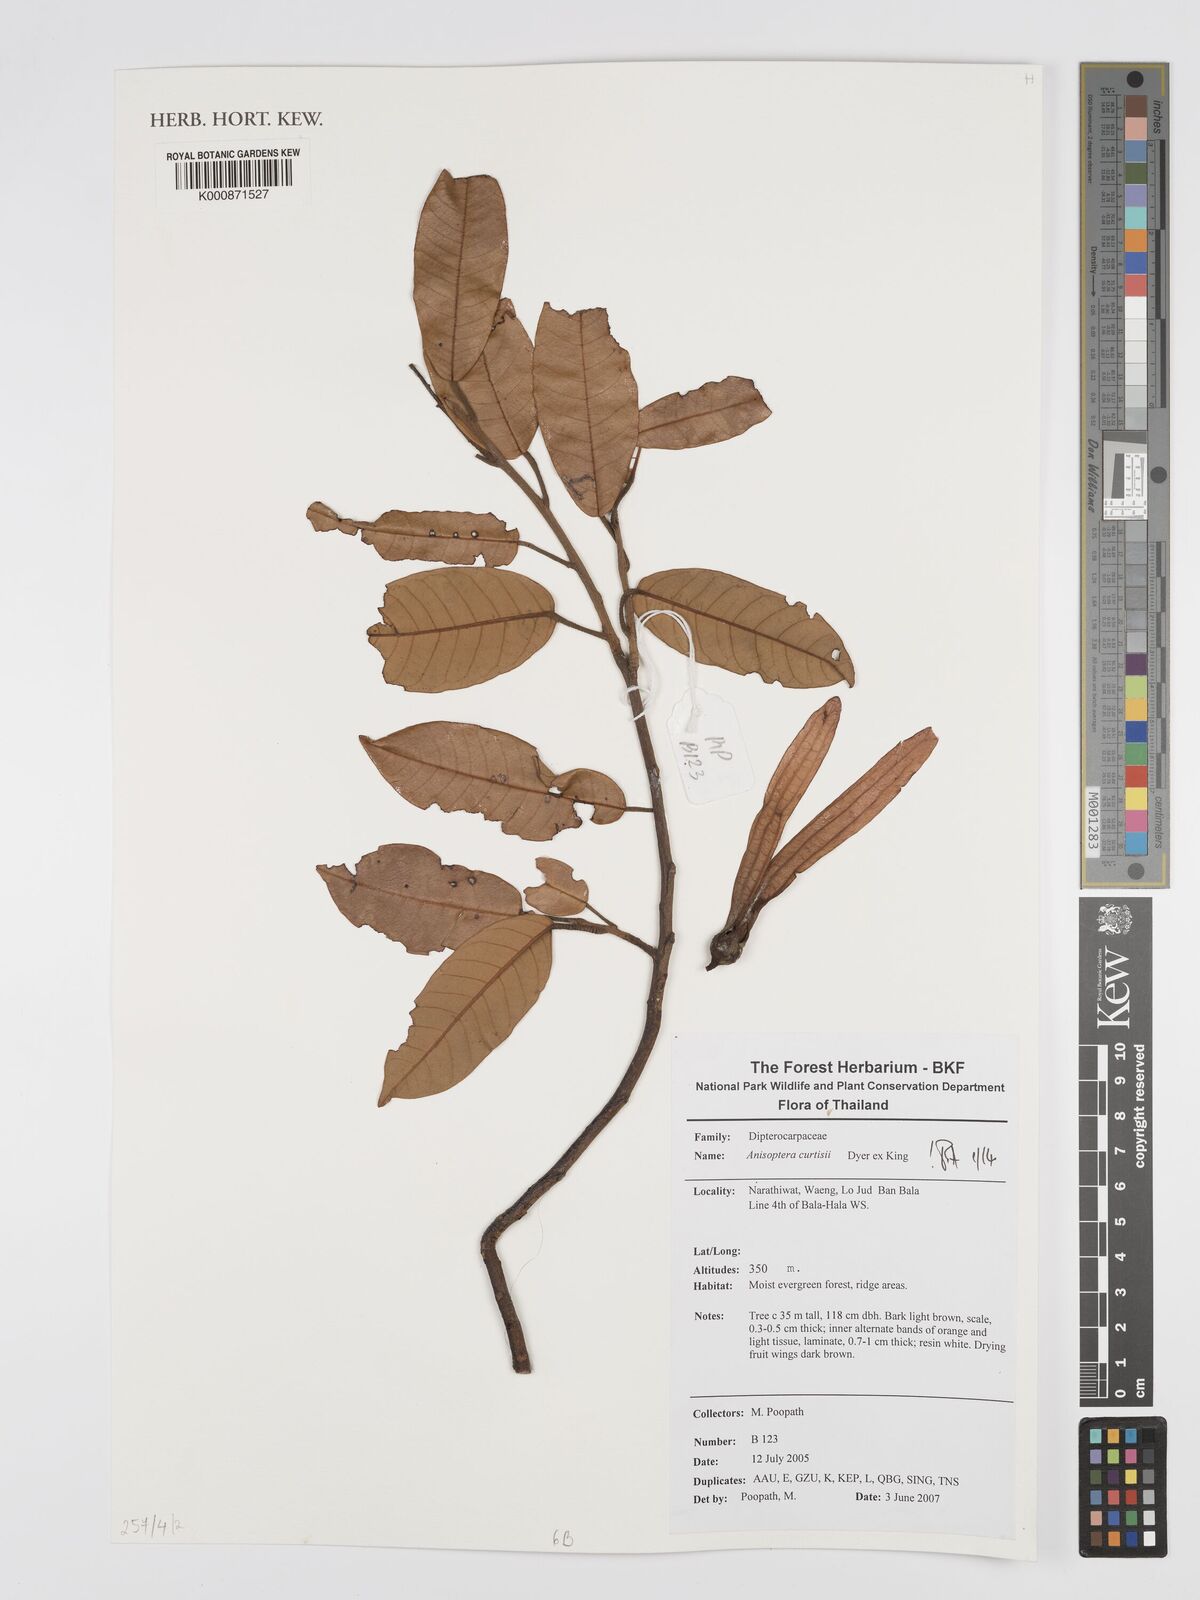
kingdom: Plantae
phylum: Tracheophyta
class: Magnoliopsida
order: Malvales
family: Dipterocarpaceae
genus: Anisoptera
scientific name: Anisoptera curtisii
